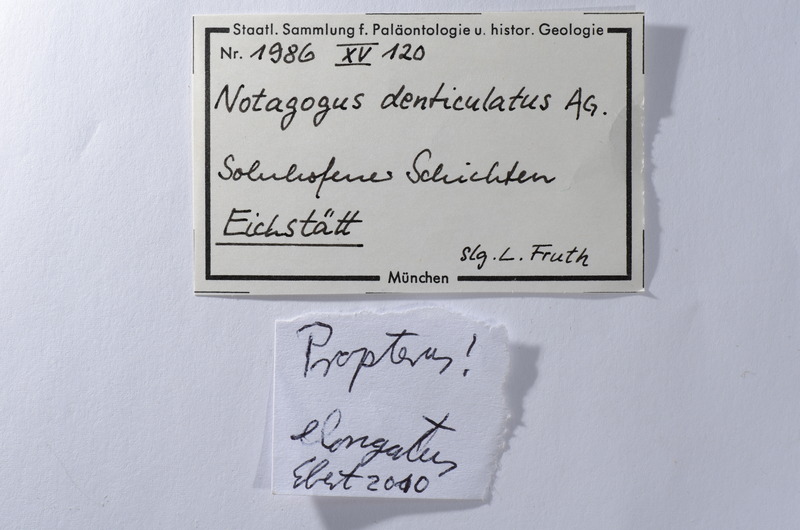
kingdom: Animalia
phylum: Chordata
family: Macrosemiidae
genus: Notagogus
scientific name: Notagogus denticulatus
